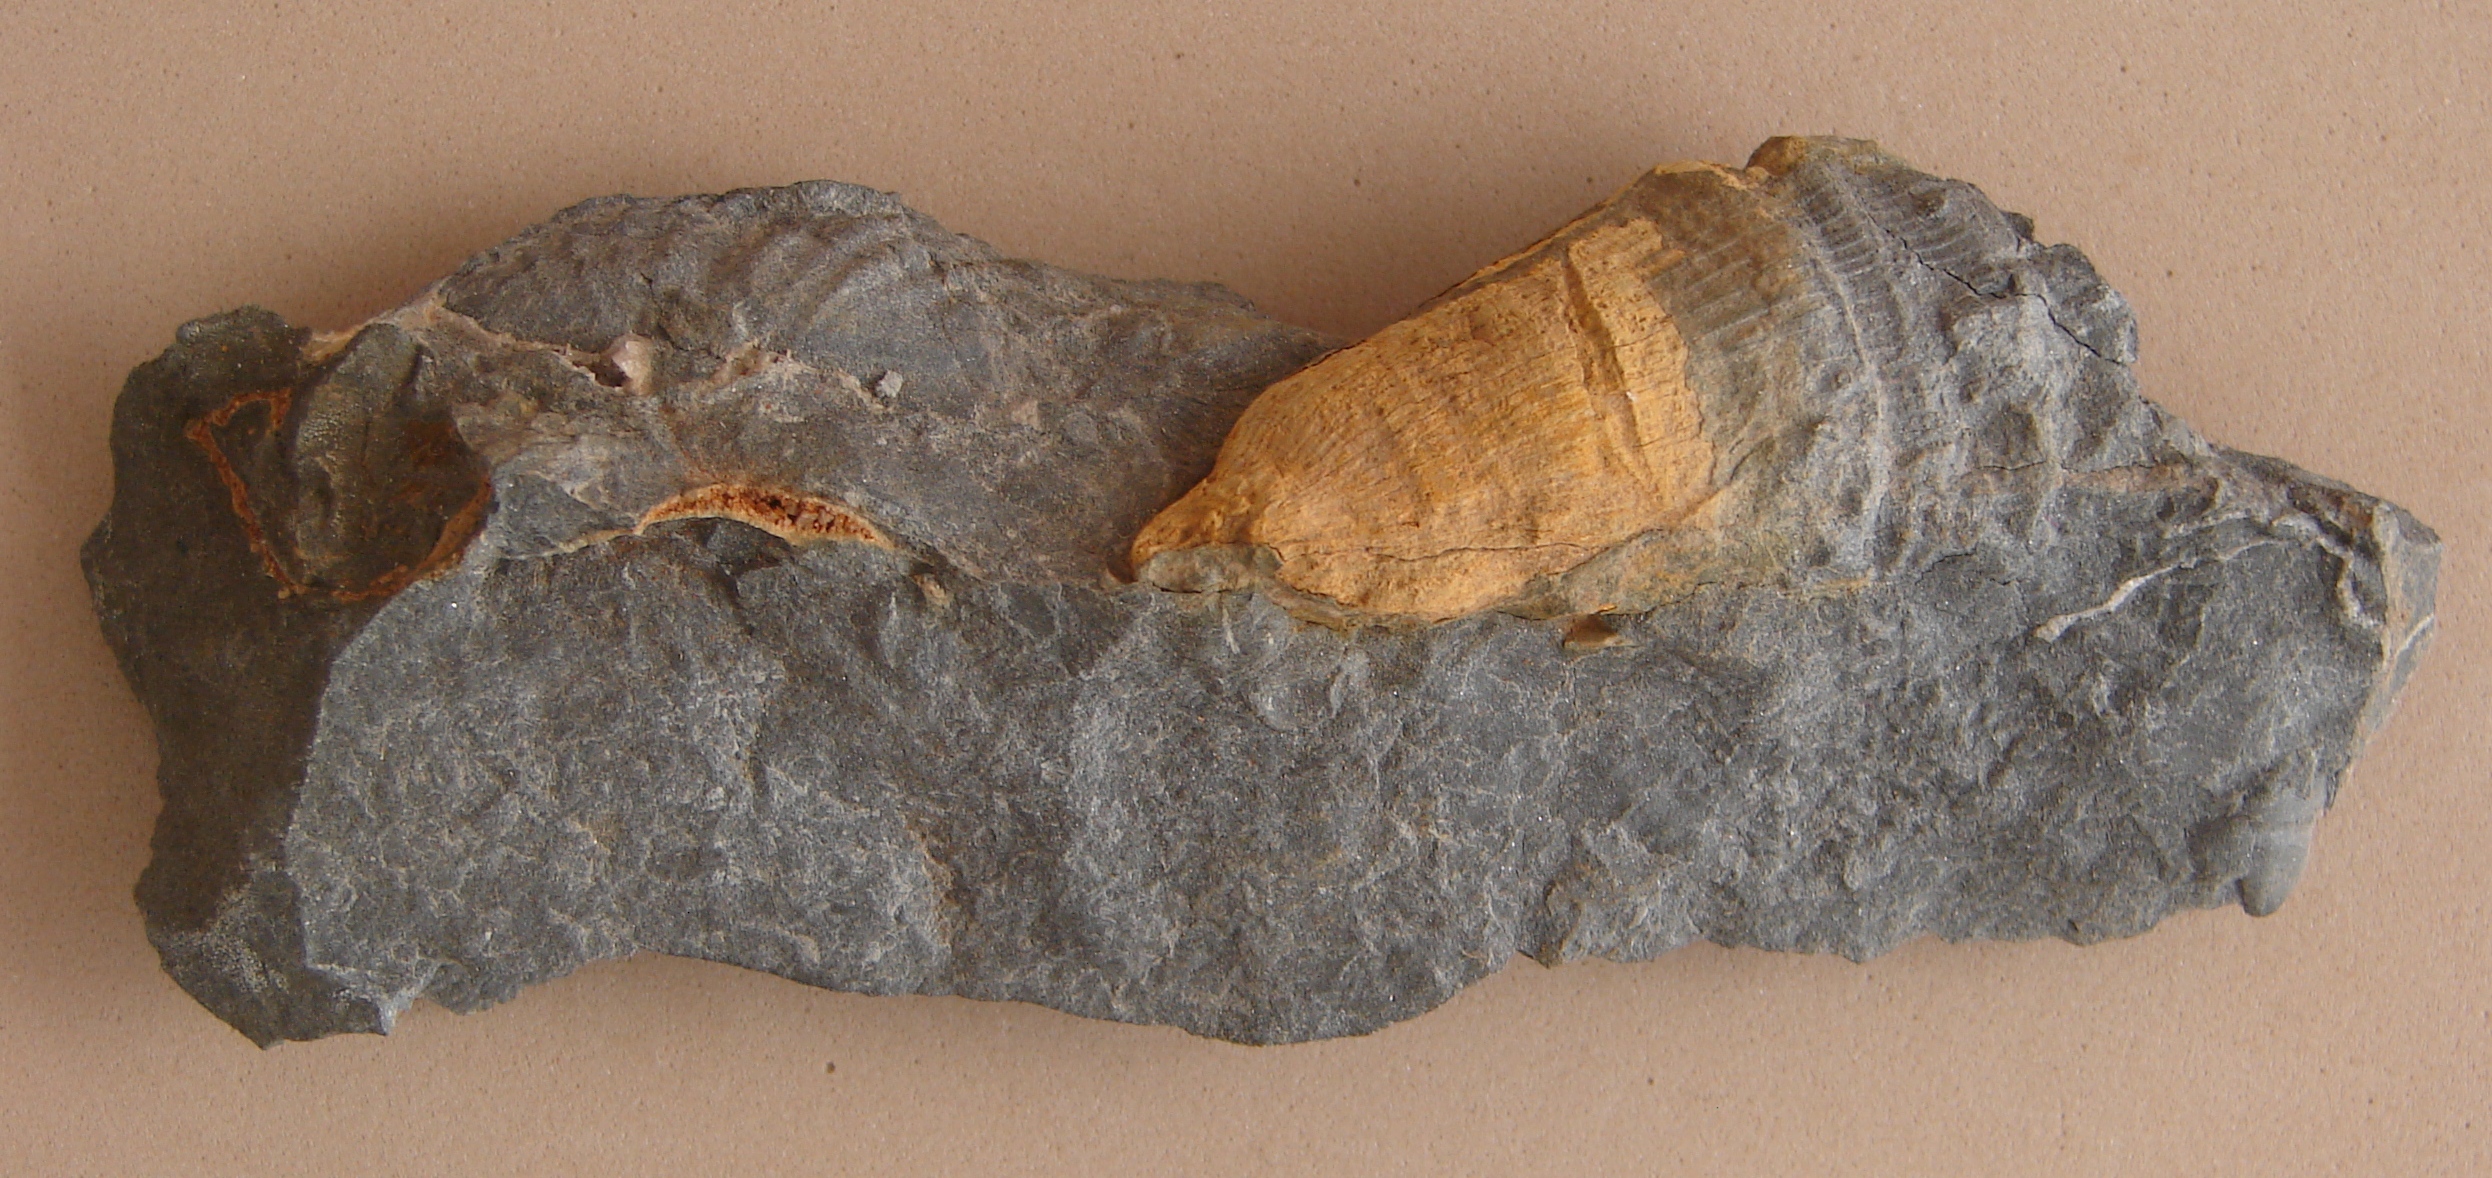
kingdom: Animalia
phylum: Cnidaria
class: Anthozoa
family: Hapsiphyllidae
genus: Hapsiphyllum
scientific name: Hapsiphyllum
